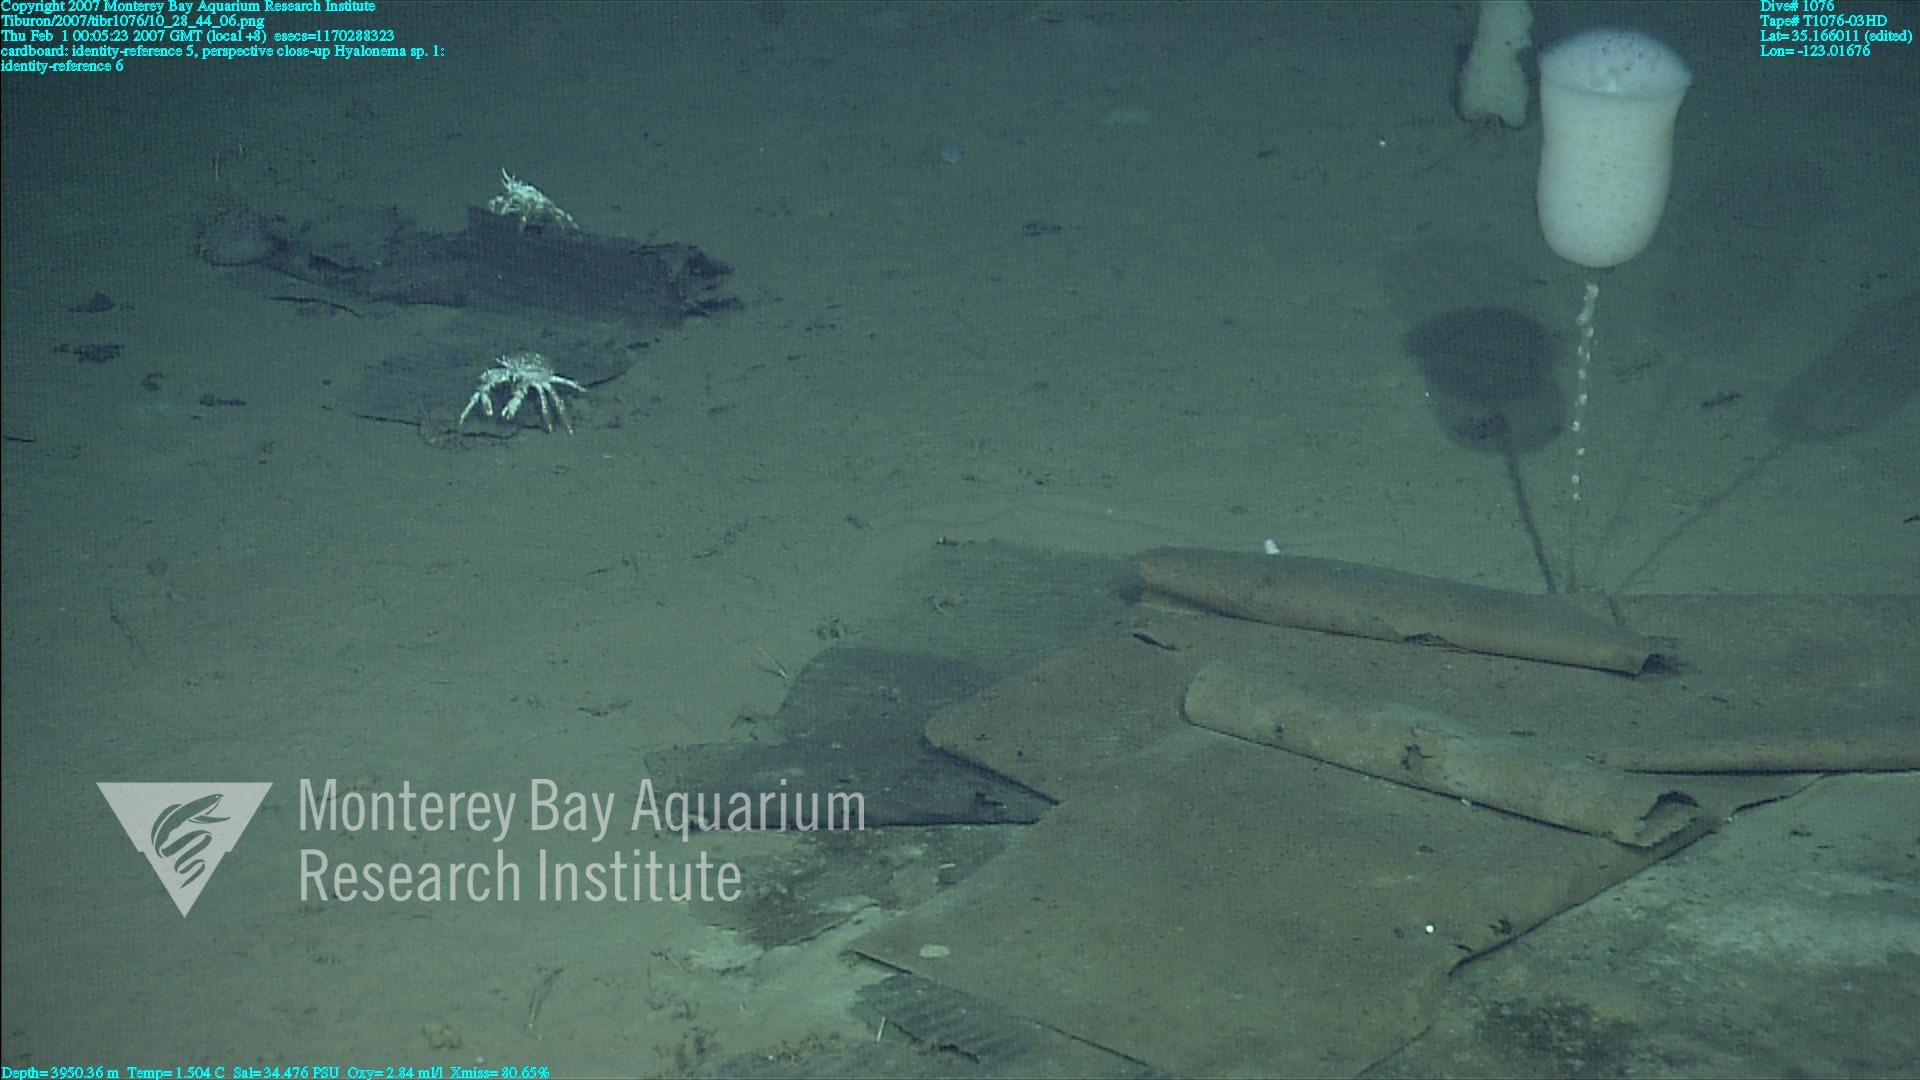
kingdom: Animalia
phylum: Porifera
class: Hexactinellida
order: Amphidiscosida
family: Hyalonematidae
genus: Hyalonema
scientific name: Hyalonema
